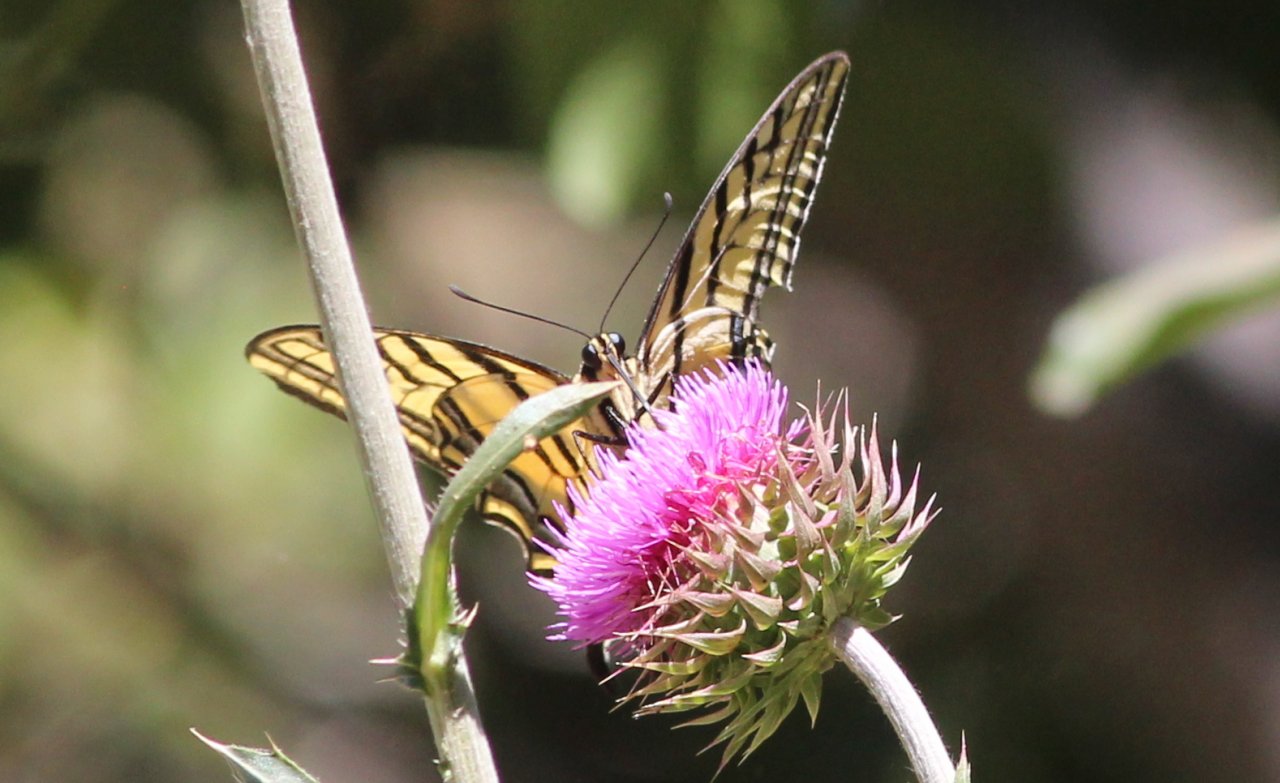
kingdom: Animalia
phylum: Arthropoda
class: Insecta
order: Lepidoptera
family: Papilionidae
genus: Papilio
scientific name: Papilio multicaudata
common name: Two-tailed Swallowtail
